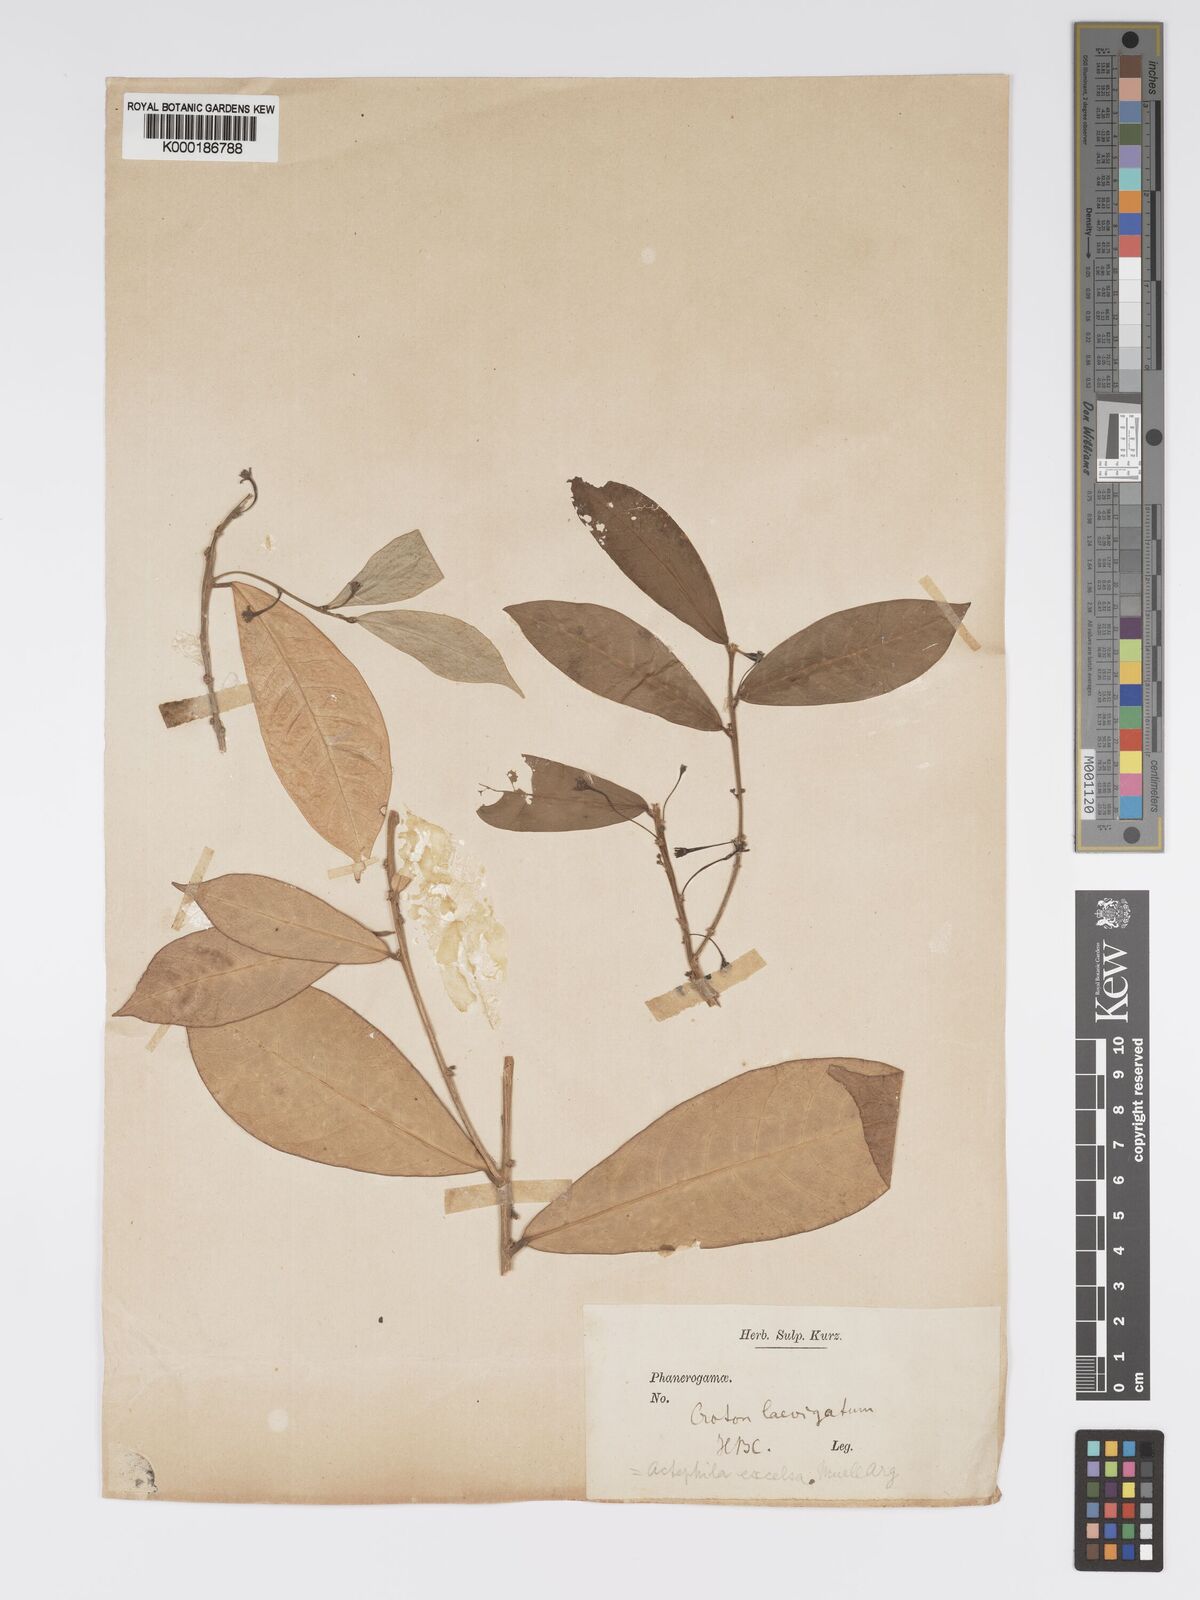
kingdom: Plantae
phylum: Tracheophyta
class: Magnoliopsida
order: Malpighiales
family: Phyllanthaceae
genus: Actephila
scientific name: Actephila excelsa
